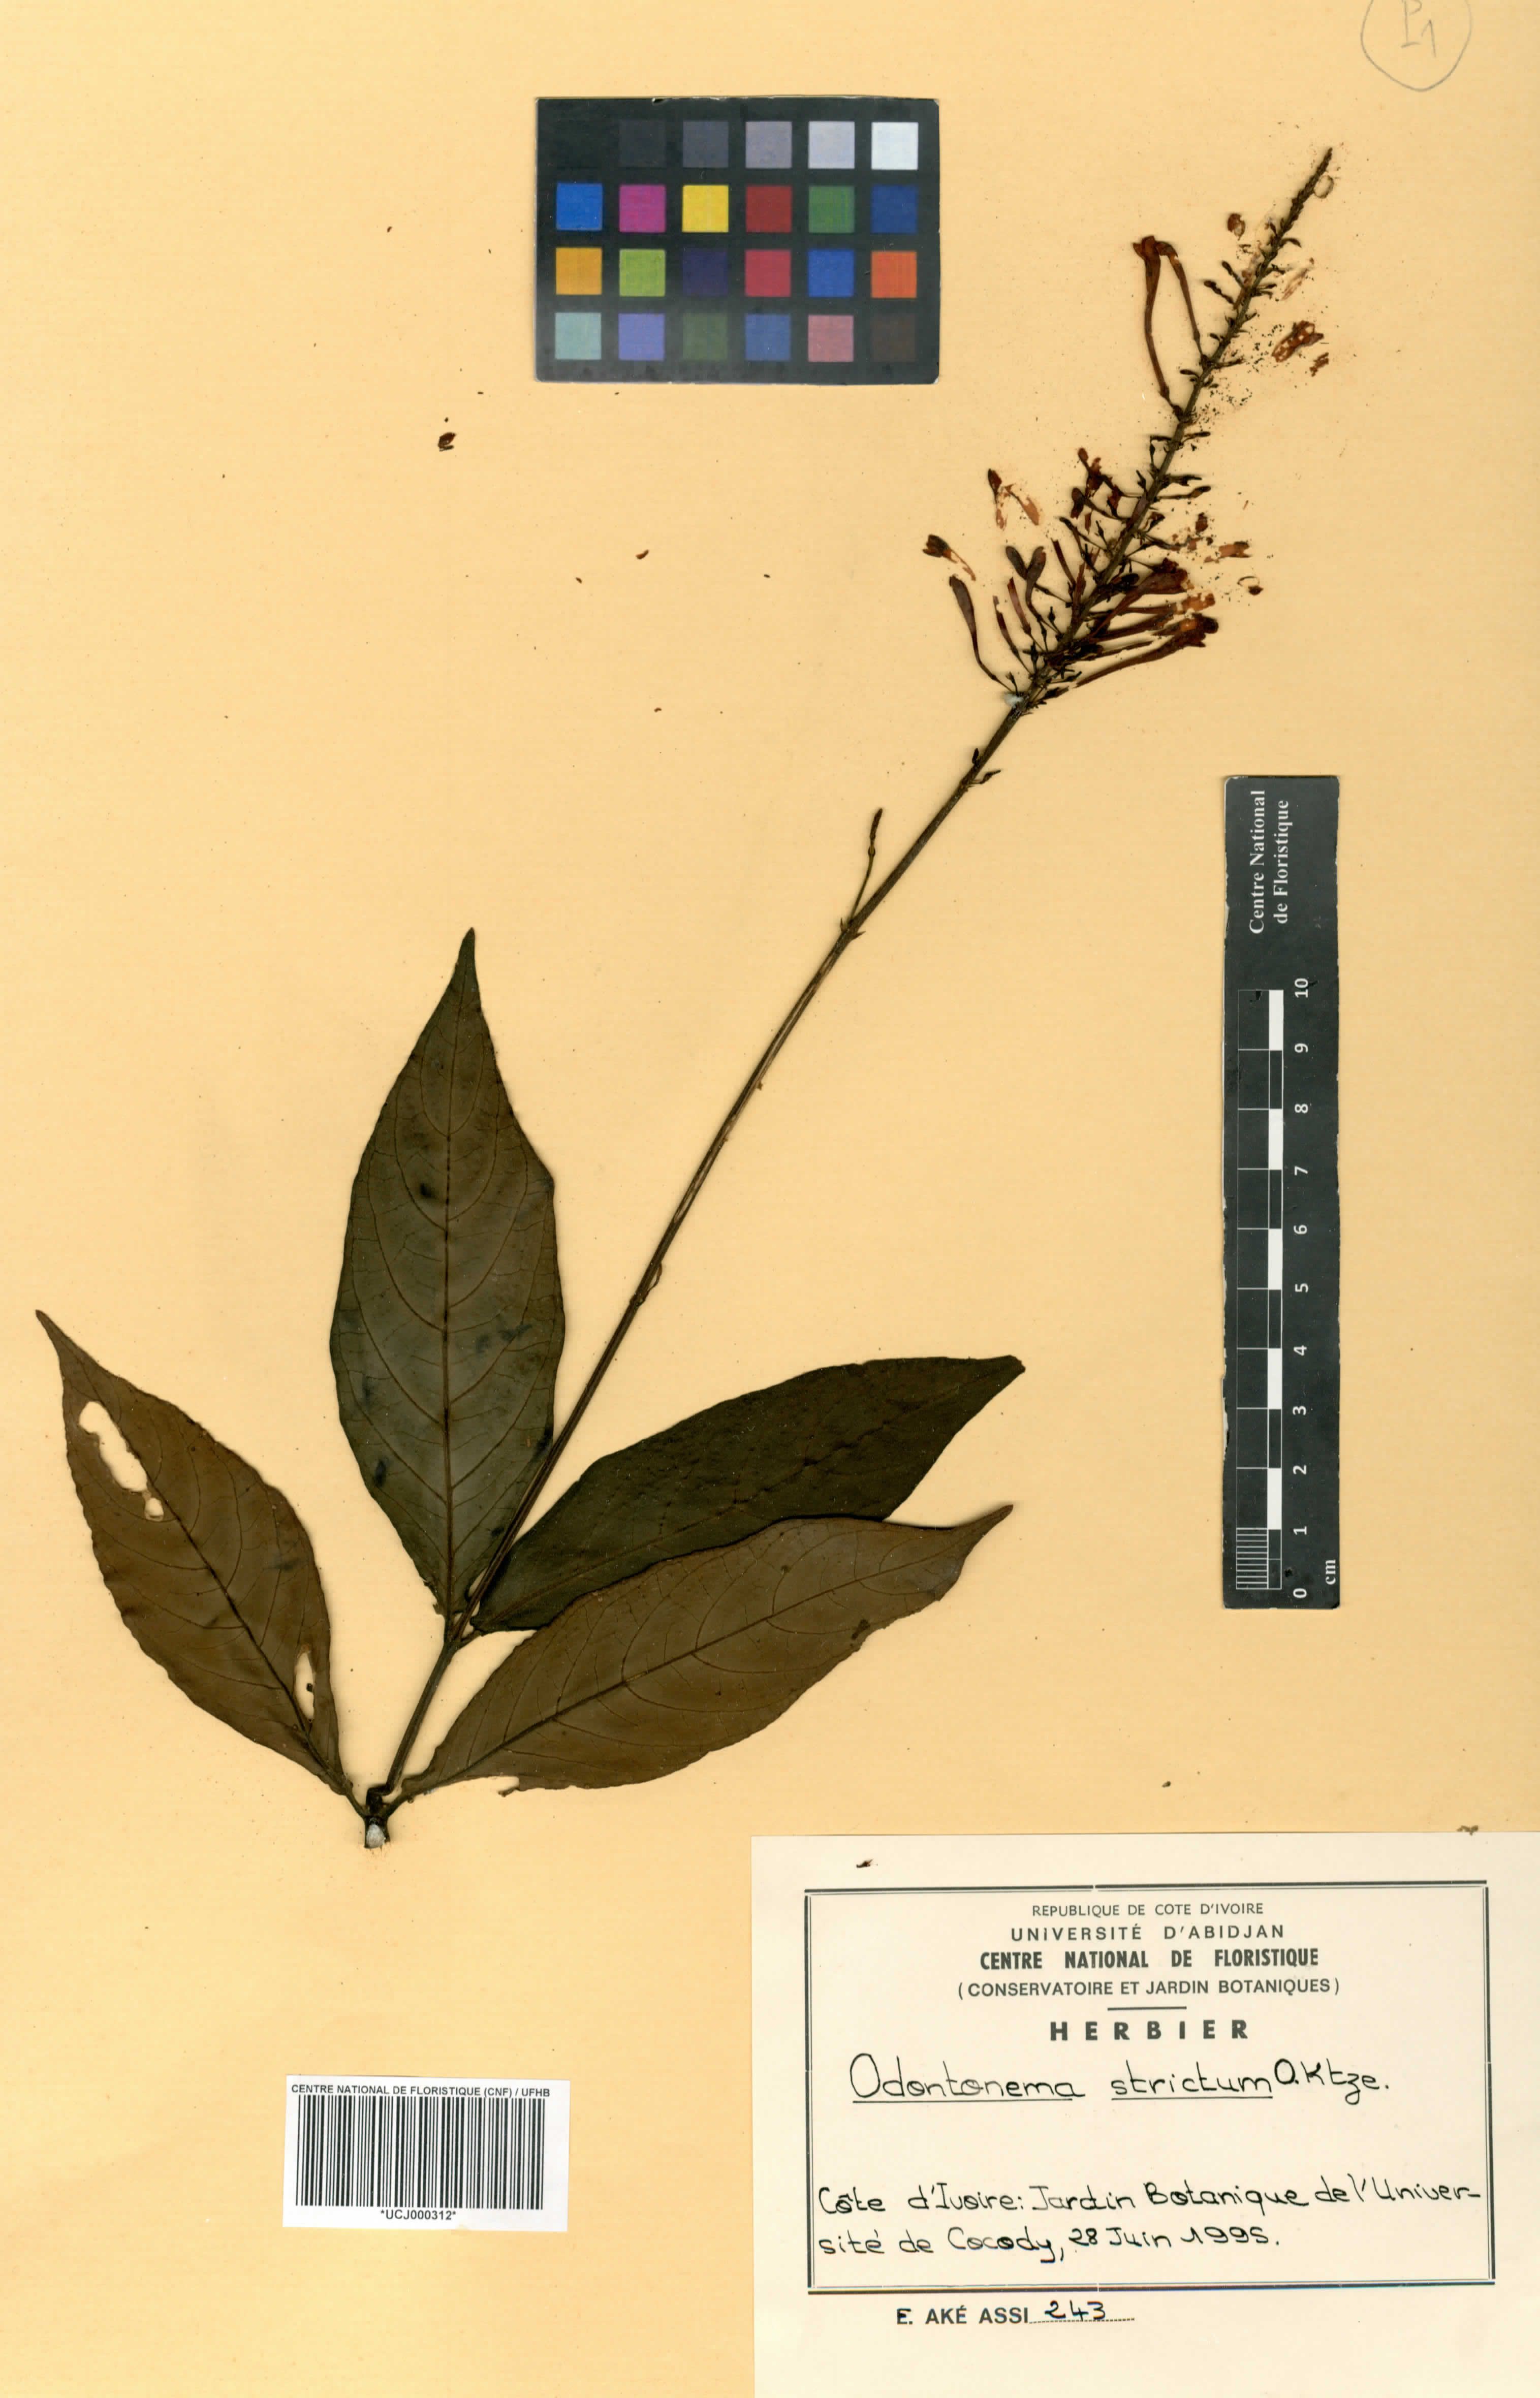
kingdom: Plantae
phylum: Tracheophyta
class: Magnoliopsida
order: Lamiales
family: Acanthaceae
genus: Odontonema
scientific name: Odontonema tubaeforme
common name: Firespike
